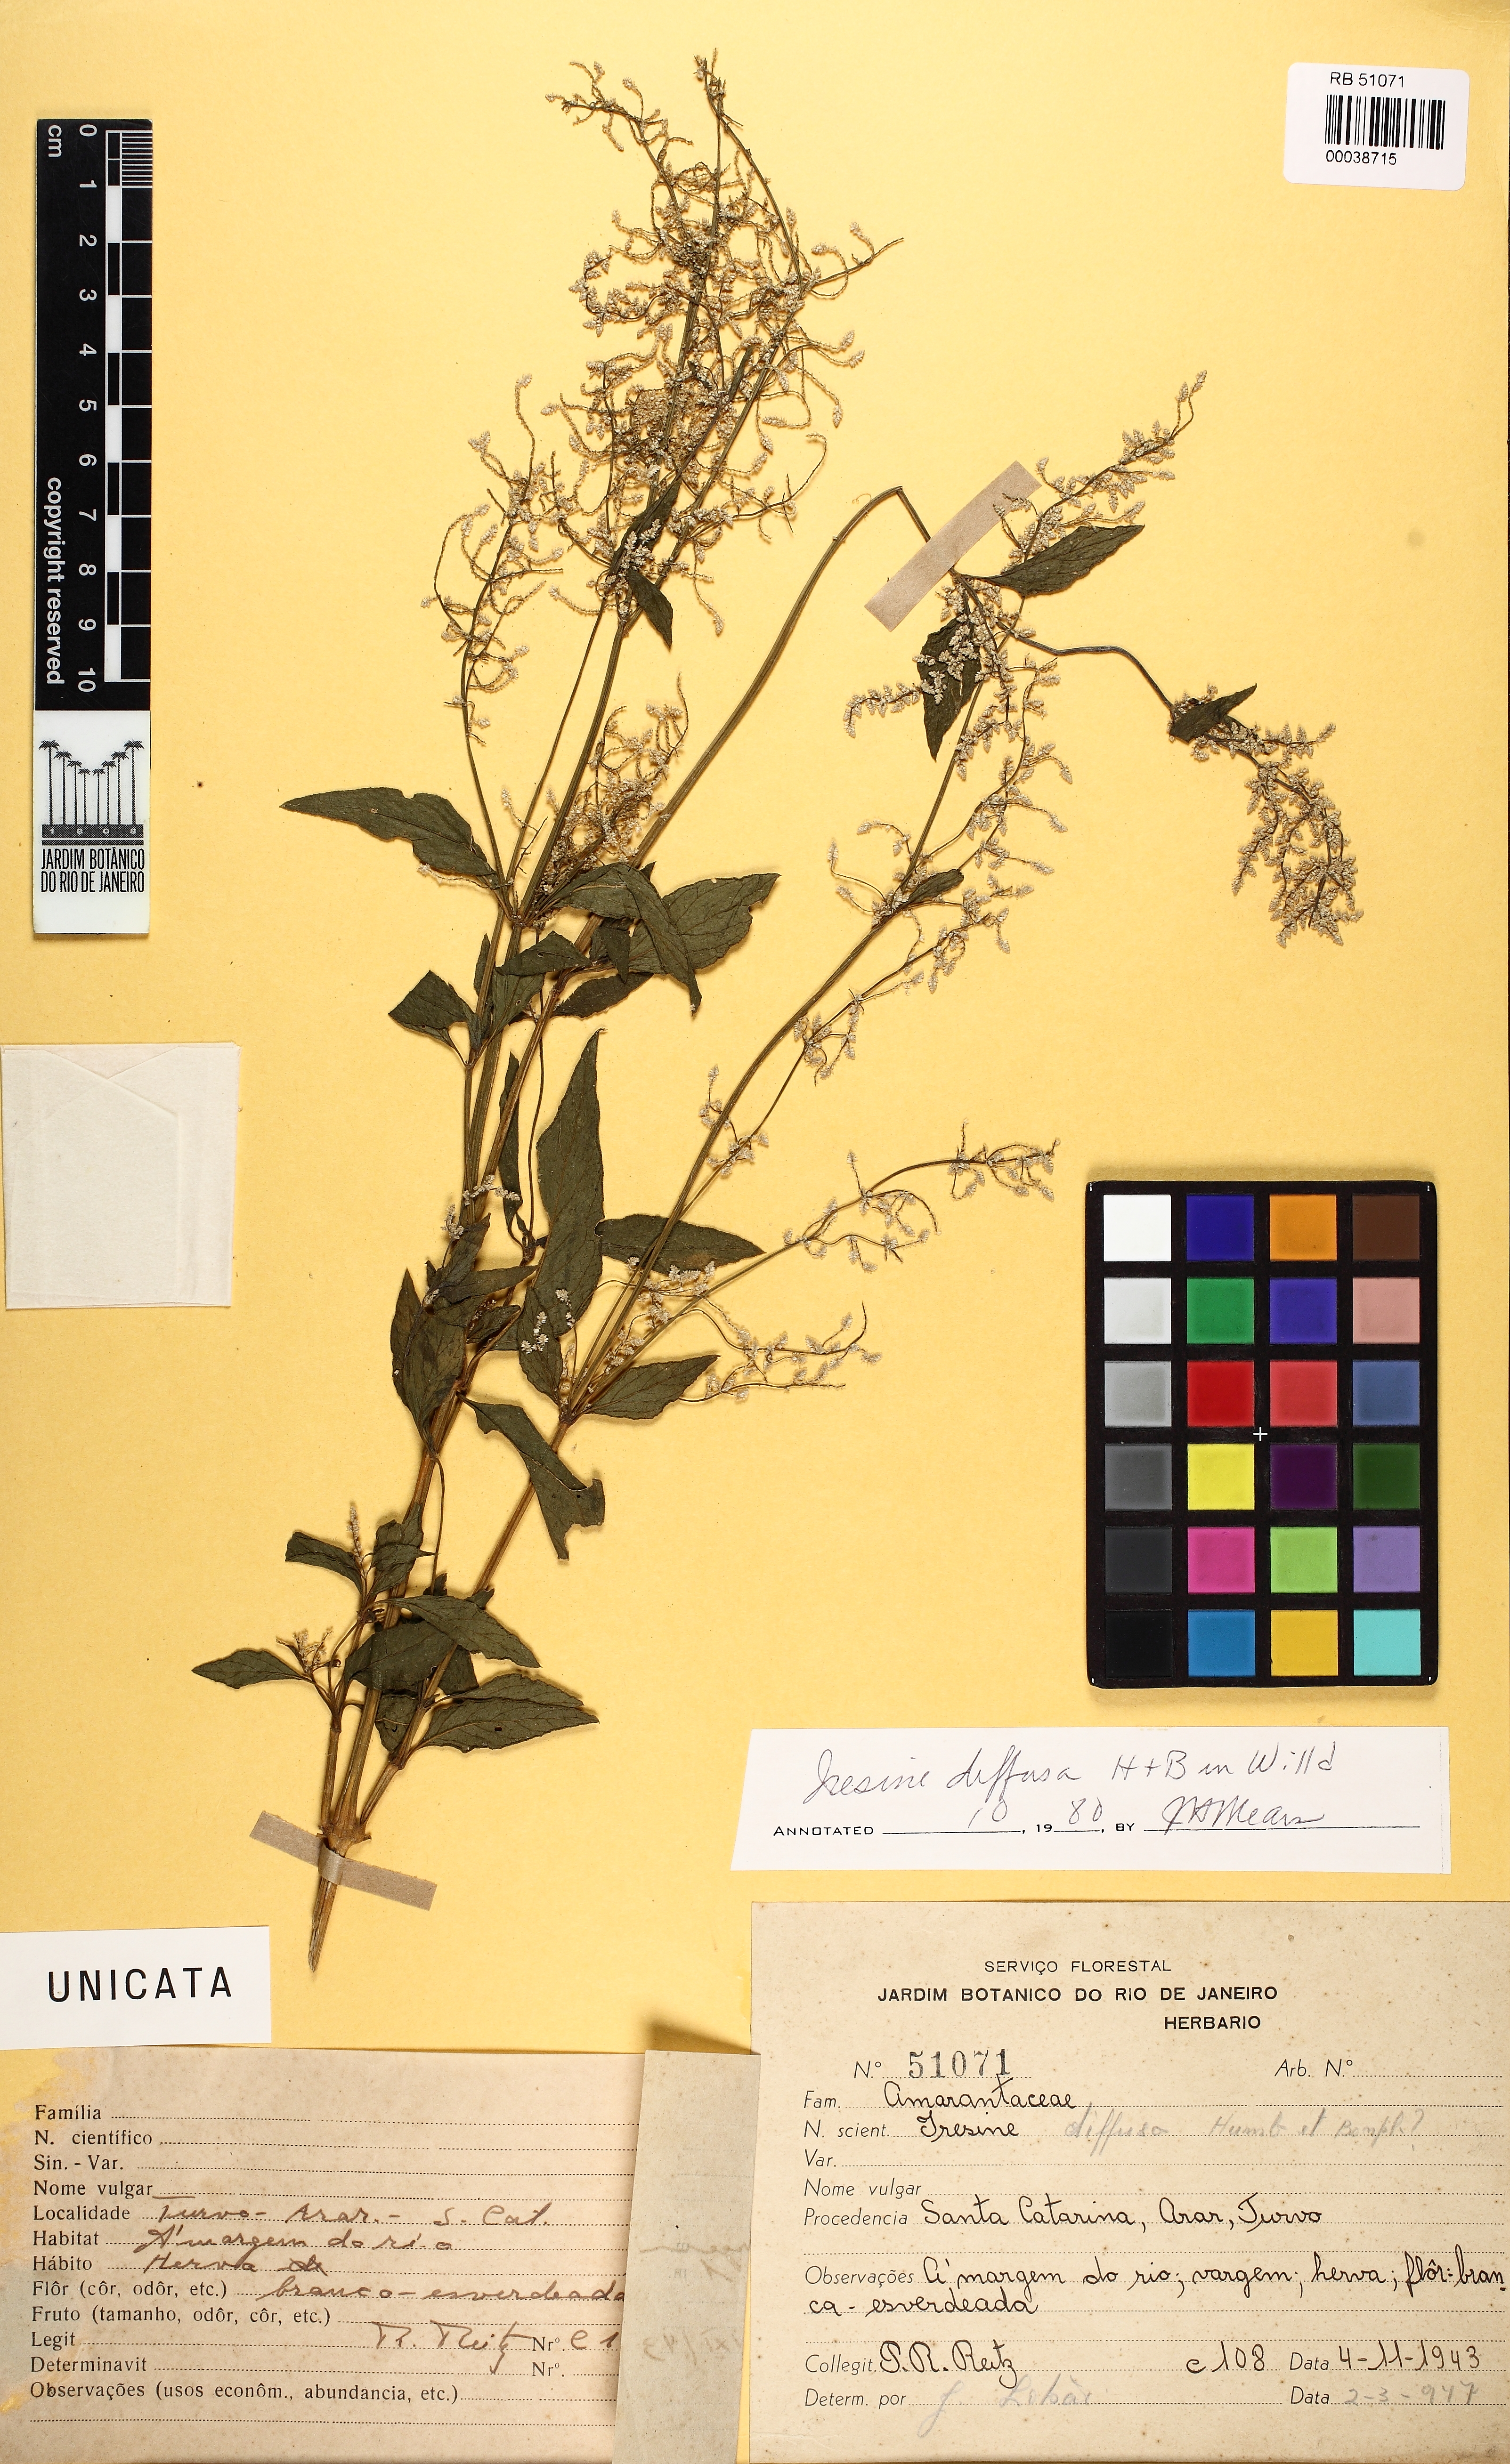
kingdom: Plantae
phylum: Tracheophyta
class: Magnoliopsida
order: Caryophyllales
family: Amaranthaceae
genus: Iresine
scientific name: Iresine diffusa
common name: Juba's-bush
